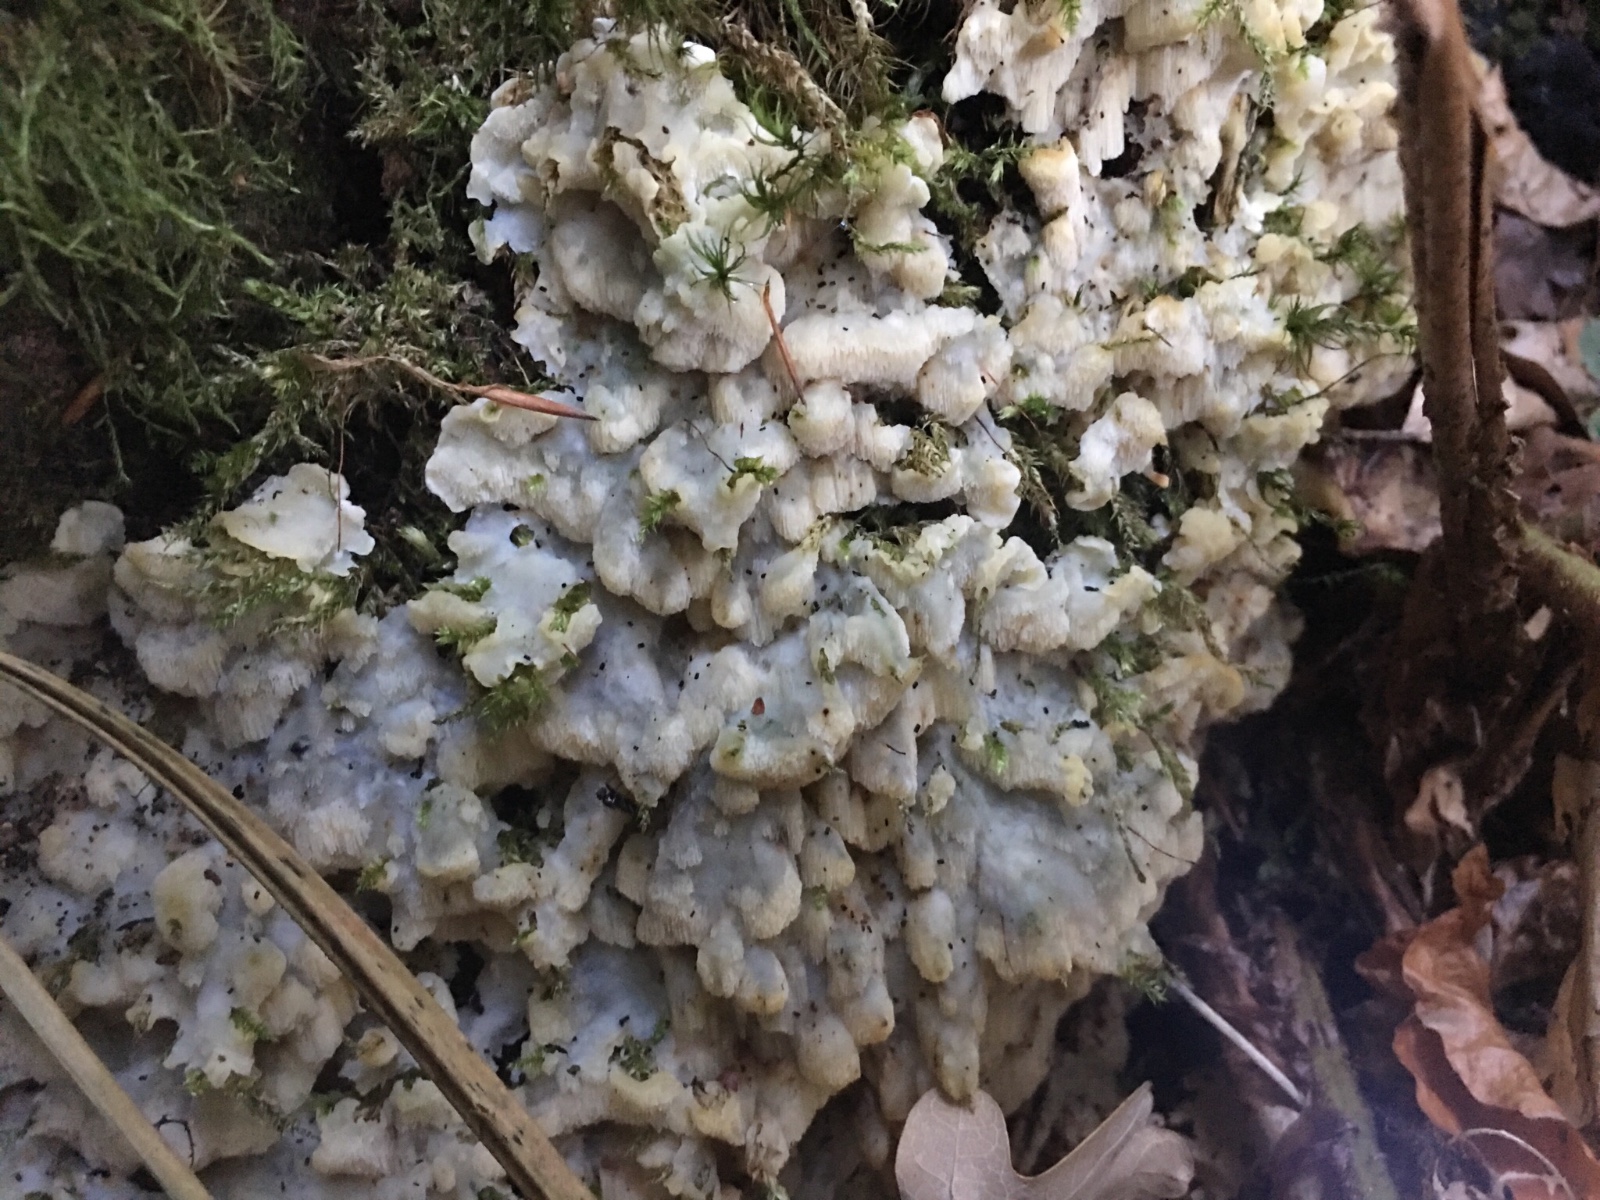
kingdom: Fungi
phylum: Basidiomycota
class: Agaricomycetes
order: Polyporales
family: Meruliaceae
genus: Physisporinus
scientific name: Physisporinus vitreus
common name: mastesvamp
